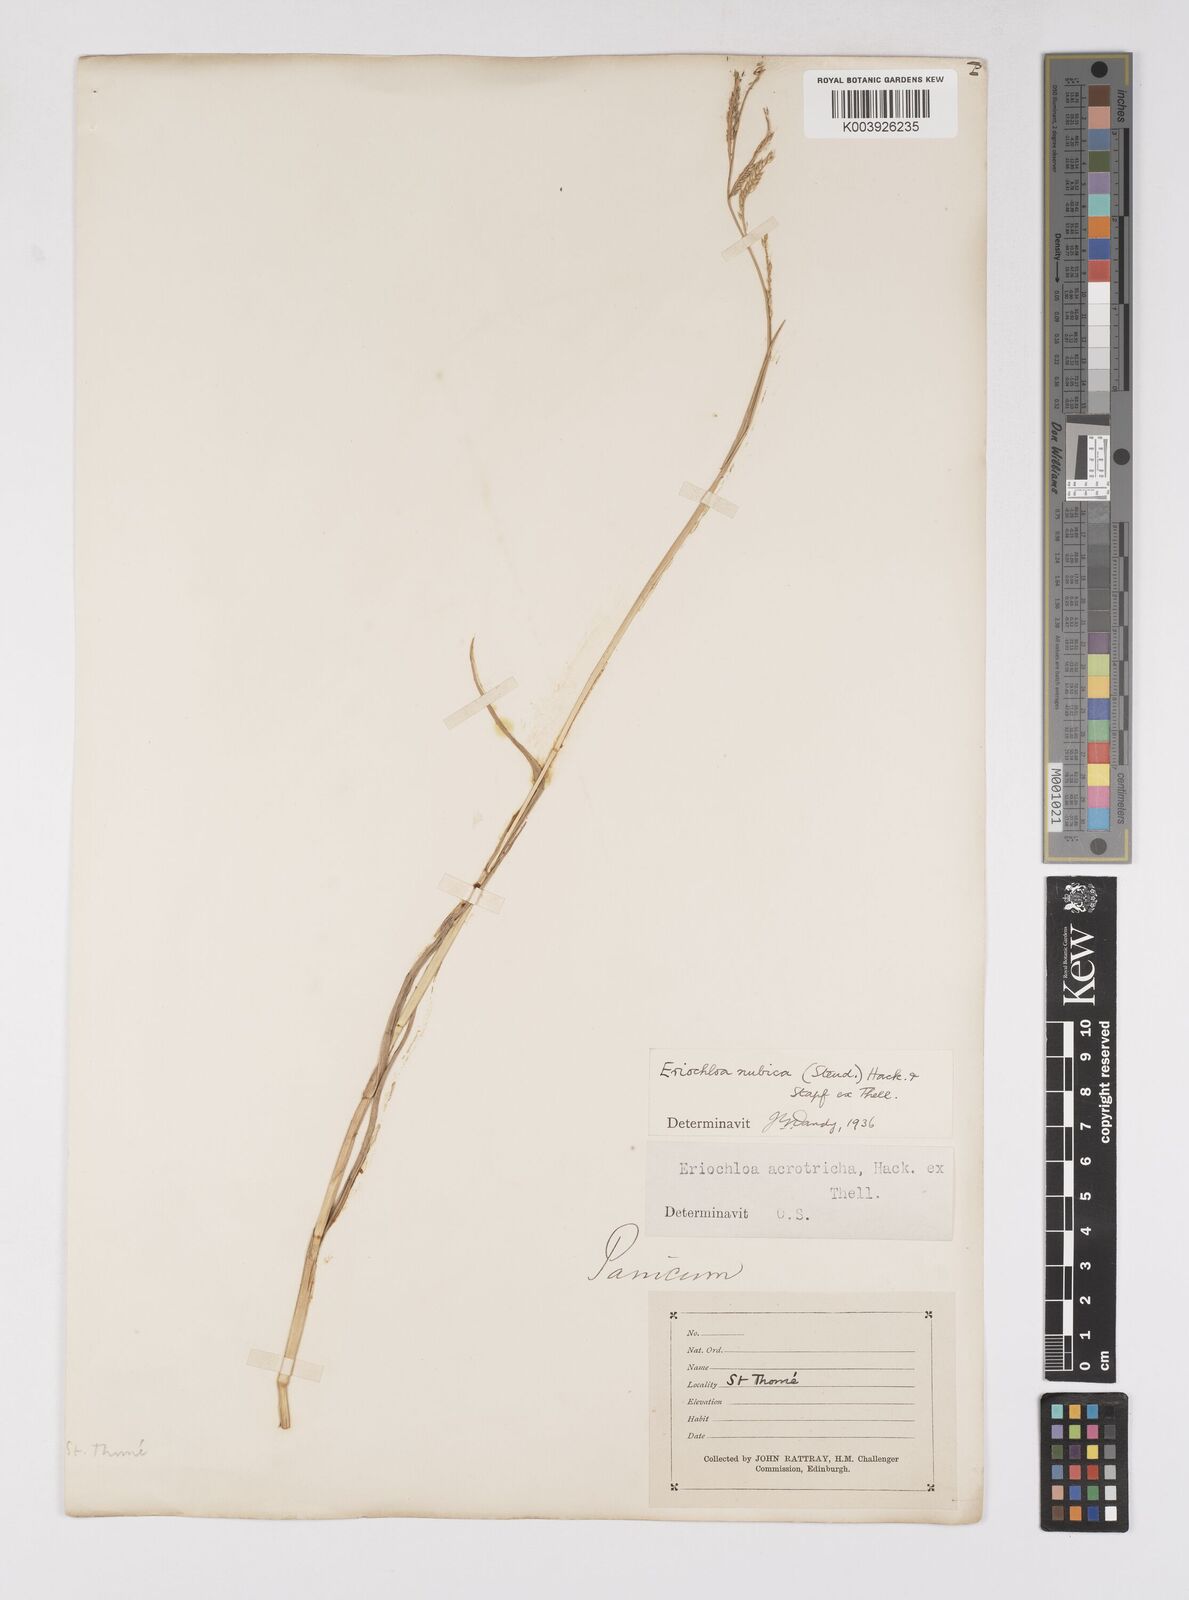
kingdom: Plantae
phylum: Tracheophyta
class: Liliopsida
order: Poales
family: Poaceae
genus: Eriochloa
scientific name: Eriochloa barbatus
